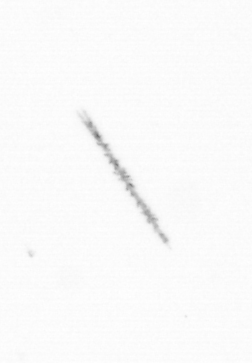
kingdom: Chromista
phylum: Ochrophyta
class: Bacillariophyceae
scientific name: Bacillariophyceae
